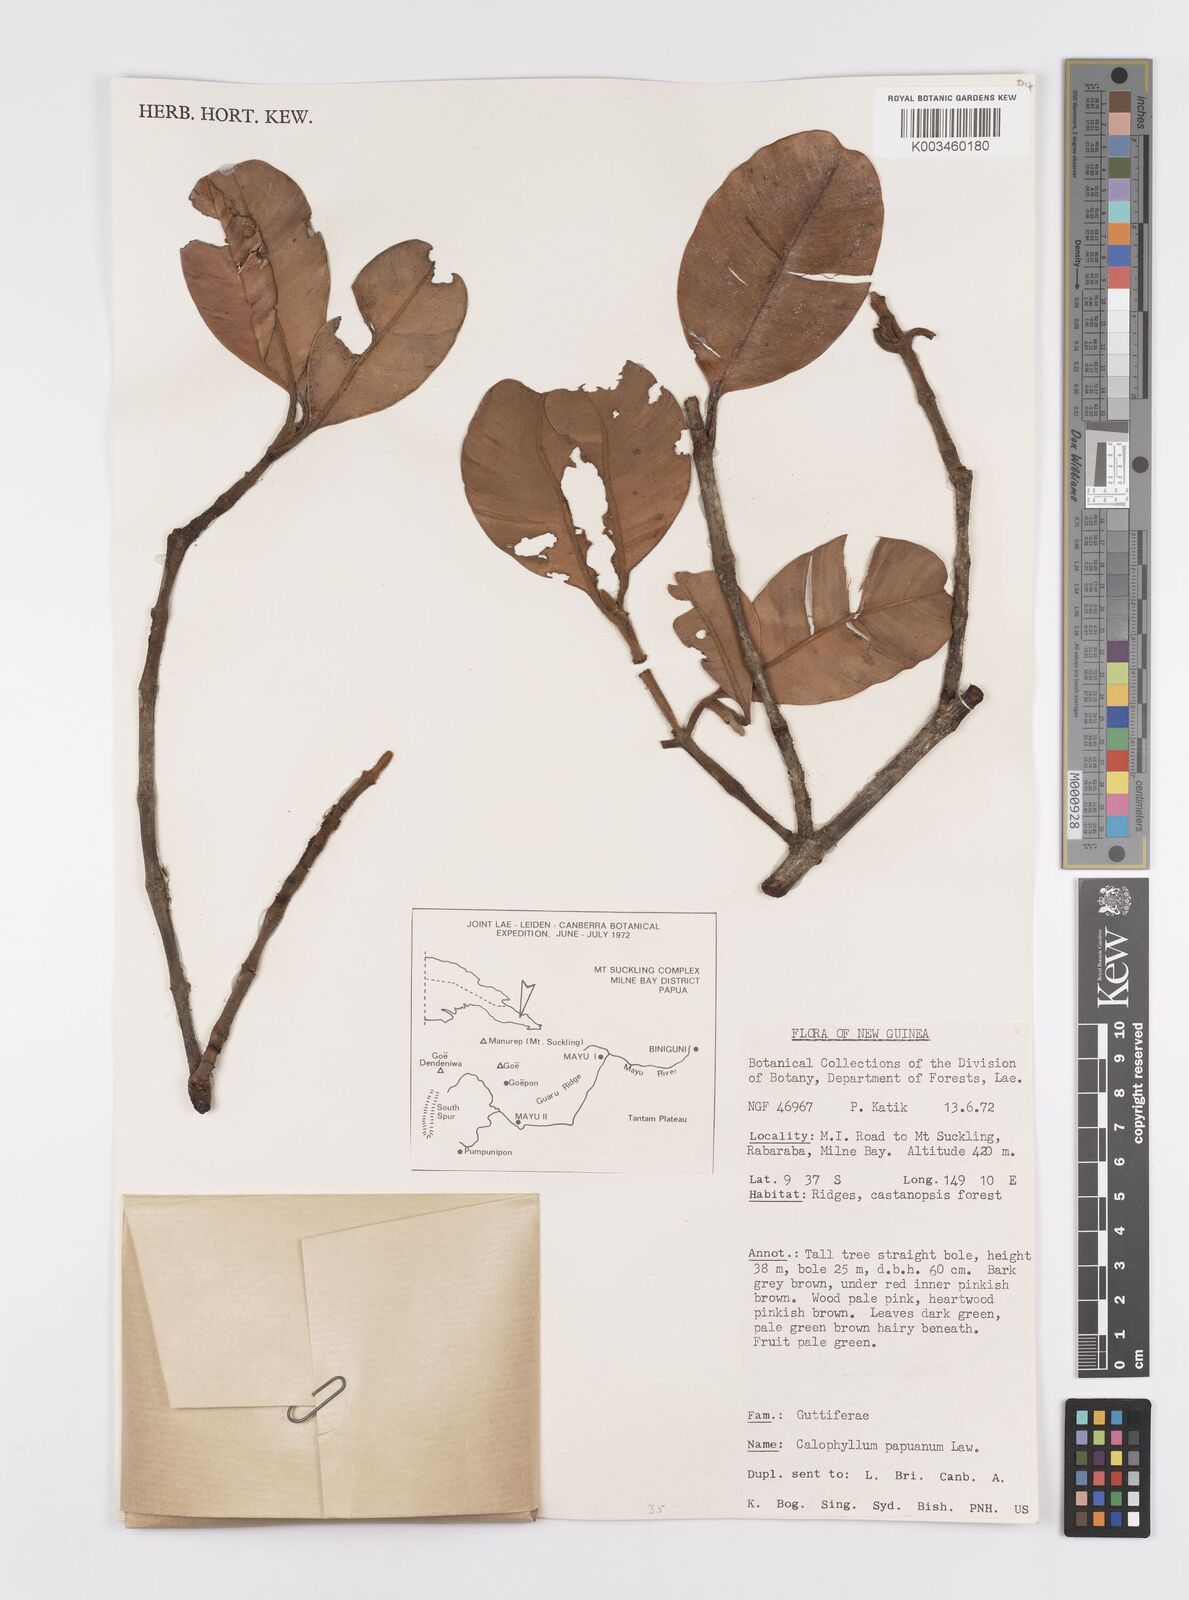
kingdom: Plantae
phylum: Tracheophyta
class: Magnoliopsida
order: Malpighiales
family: Calophyllaceae
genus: Calophyllum
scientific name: Calophyllum papuanum
